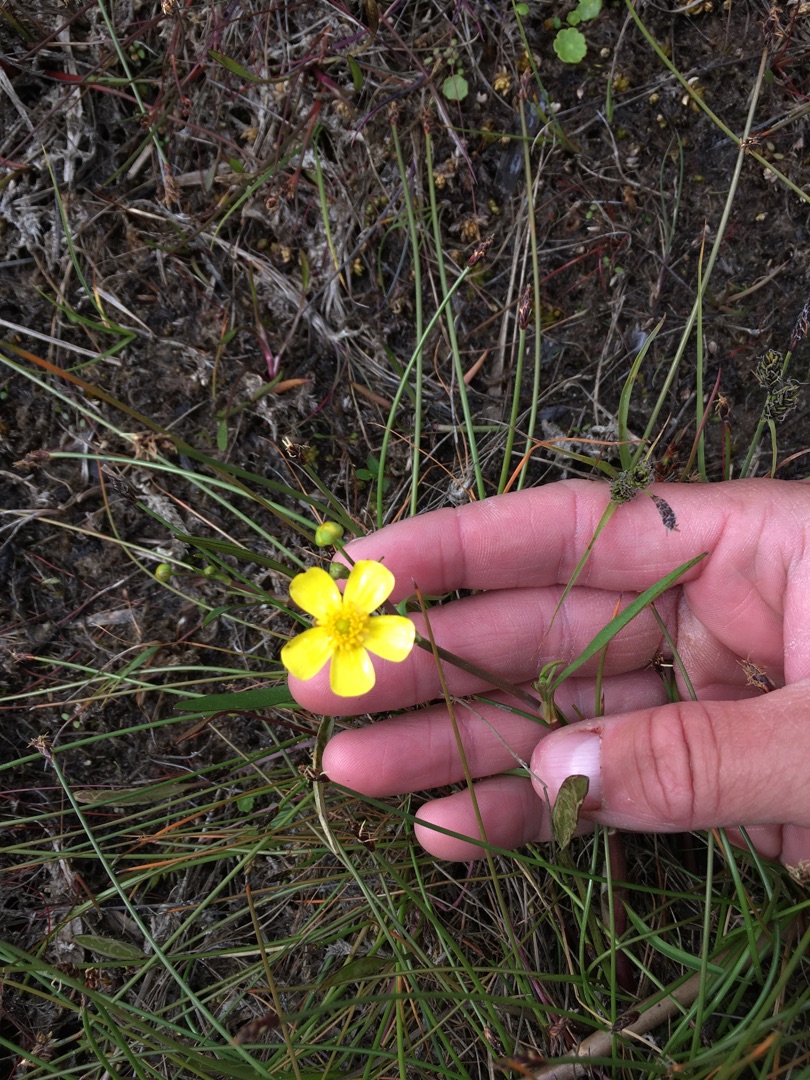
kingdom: Plantae
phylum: Tracheophyta
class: Magnoliopsida
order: Ranunculales
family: Ranunculaceae
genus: Ranunculus
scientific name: Ranunculus flammula
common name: Kær-ranunkel
